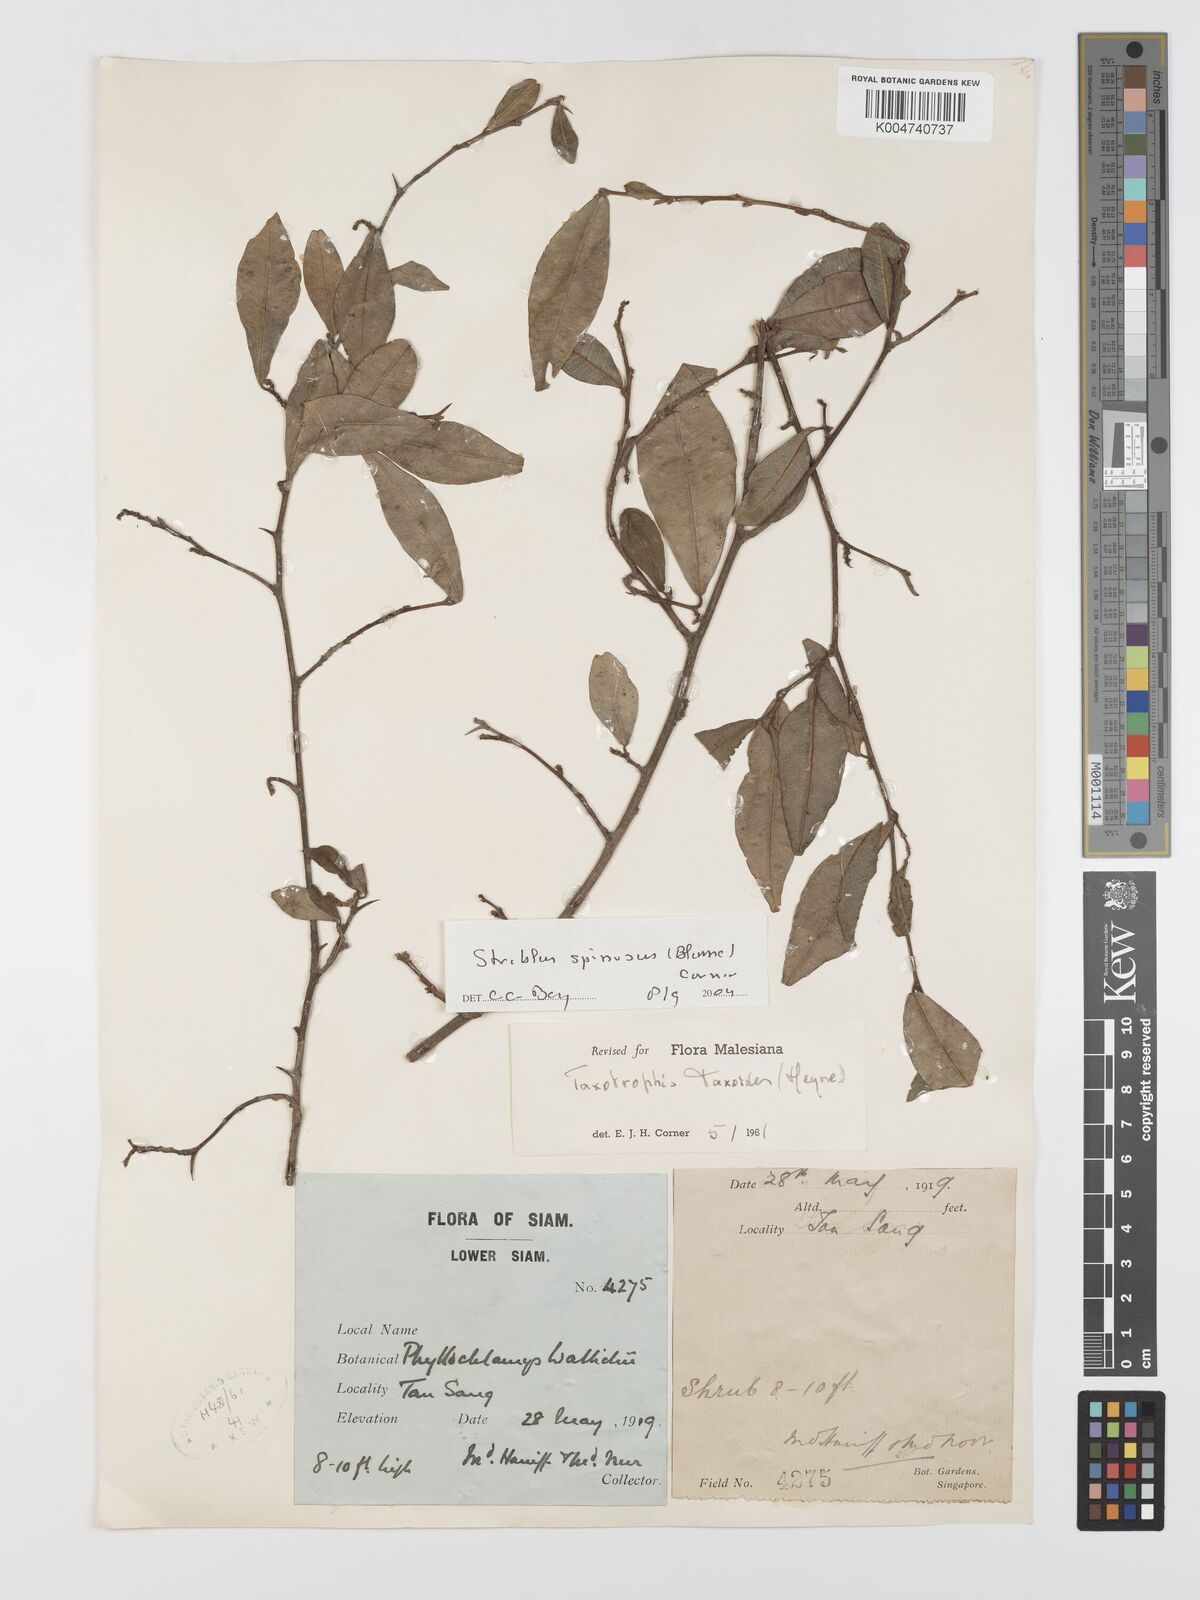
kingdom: Plantae
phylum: Tracheophyta
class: Magnoliopsida
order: Rosales
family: Moraceae
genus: Taxotrophis
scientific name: Taxotrophis spinosa
